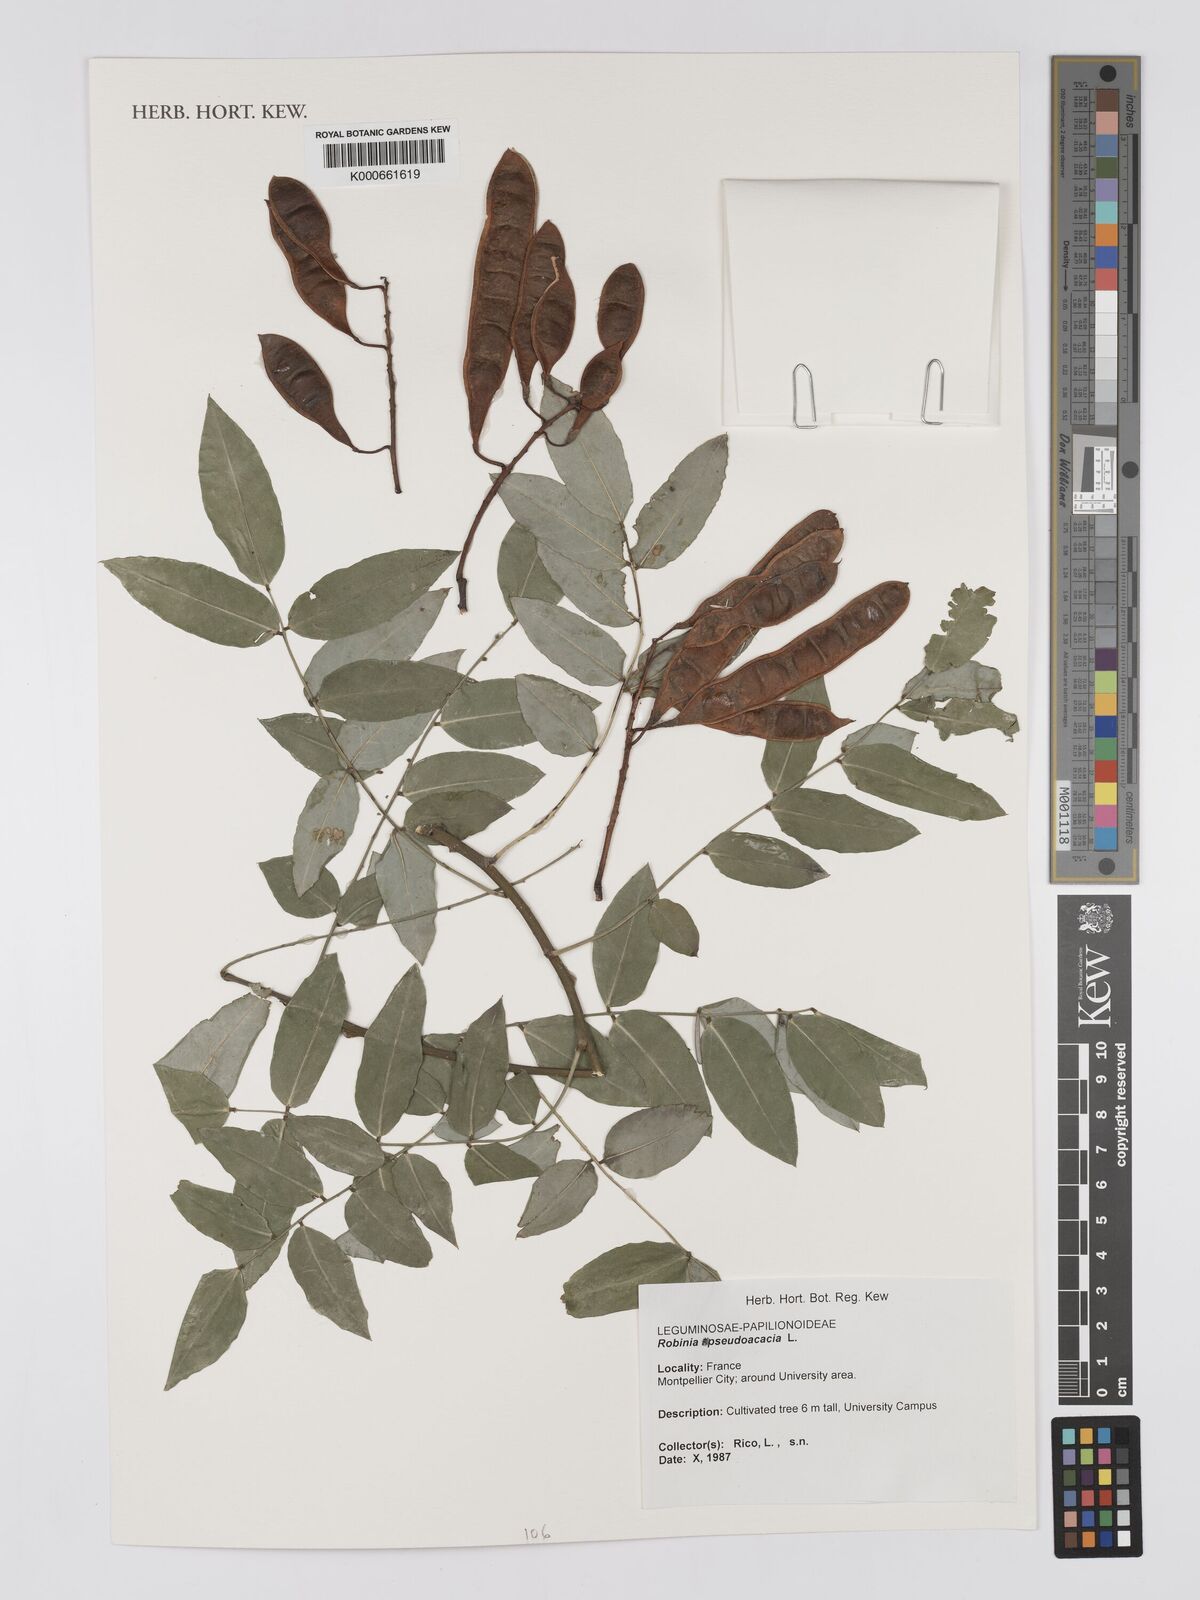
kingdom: Plantae
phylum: Tracheophyta
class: Magnoliopsida
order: Fabales
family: Fabaceae
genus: Robinia
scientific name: Robinia pseudoacacia
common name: Black locust
